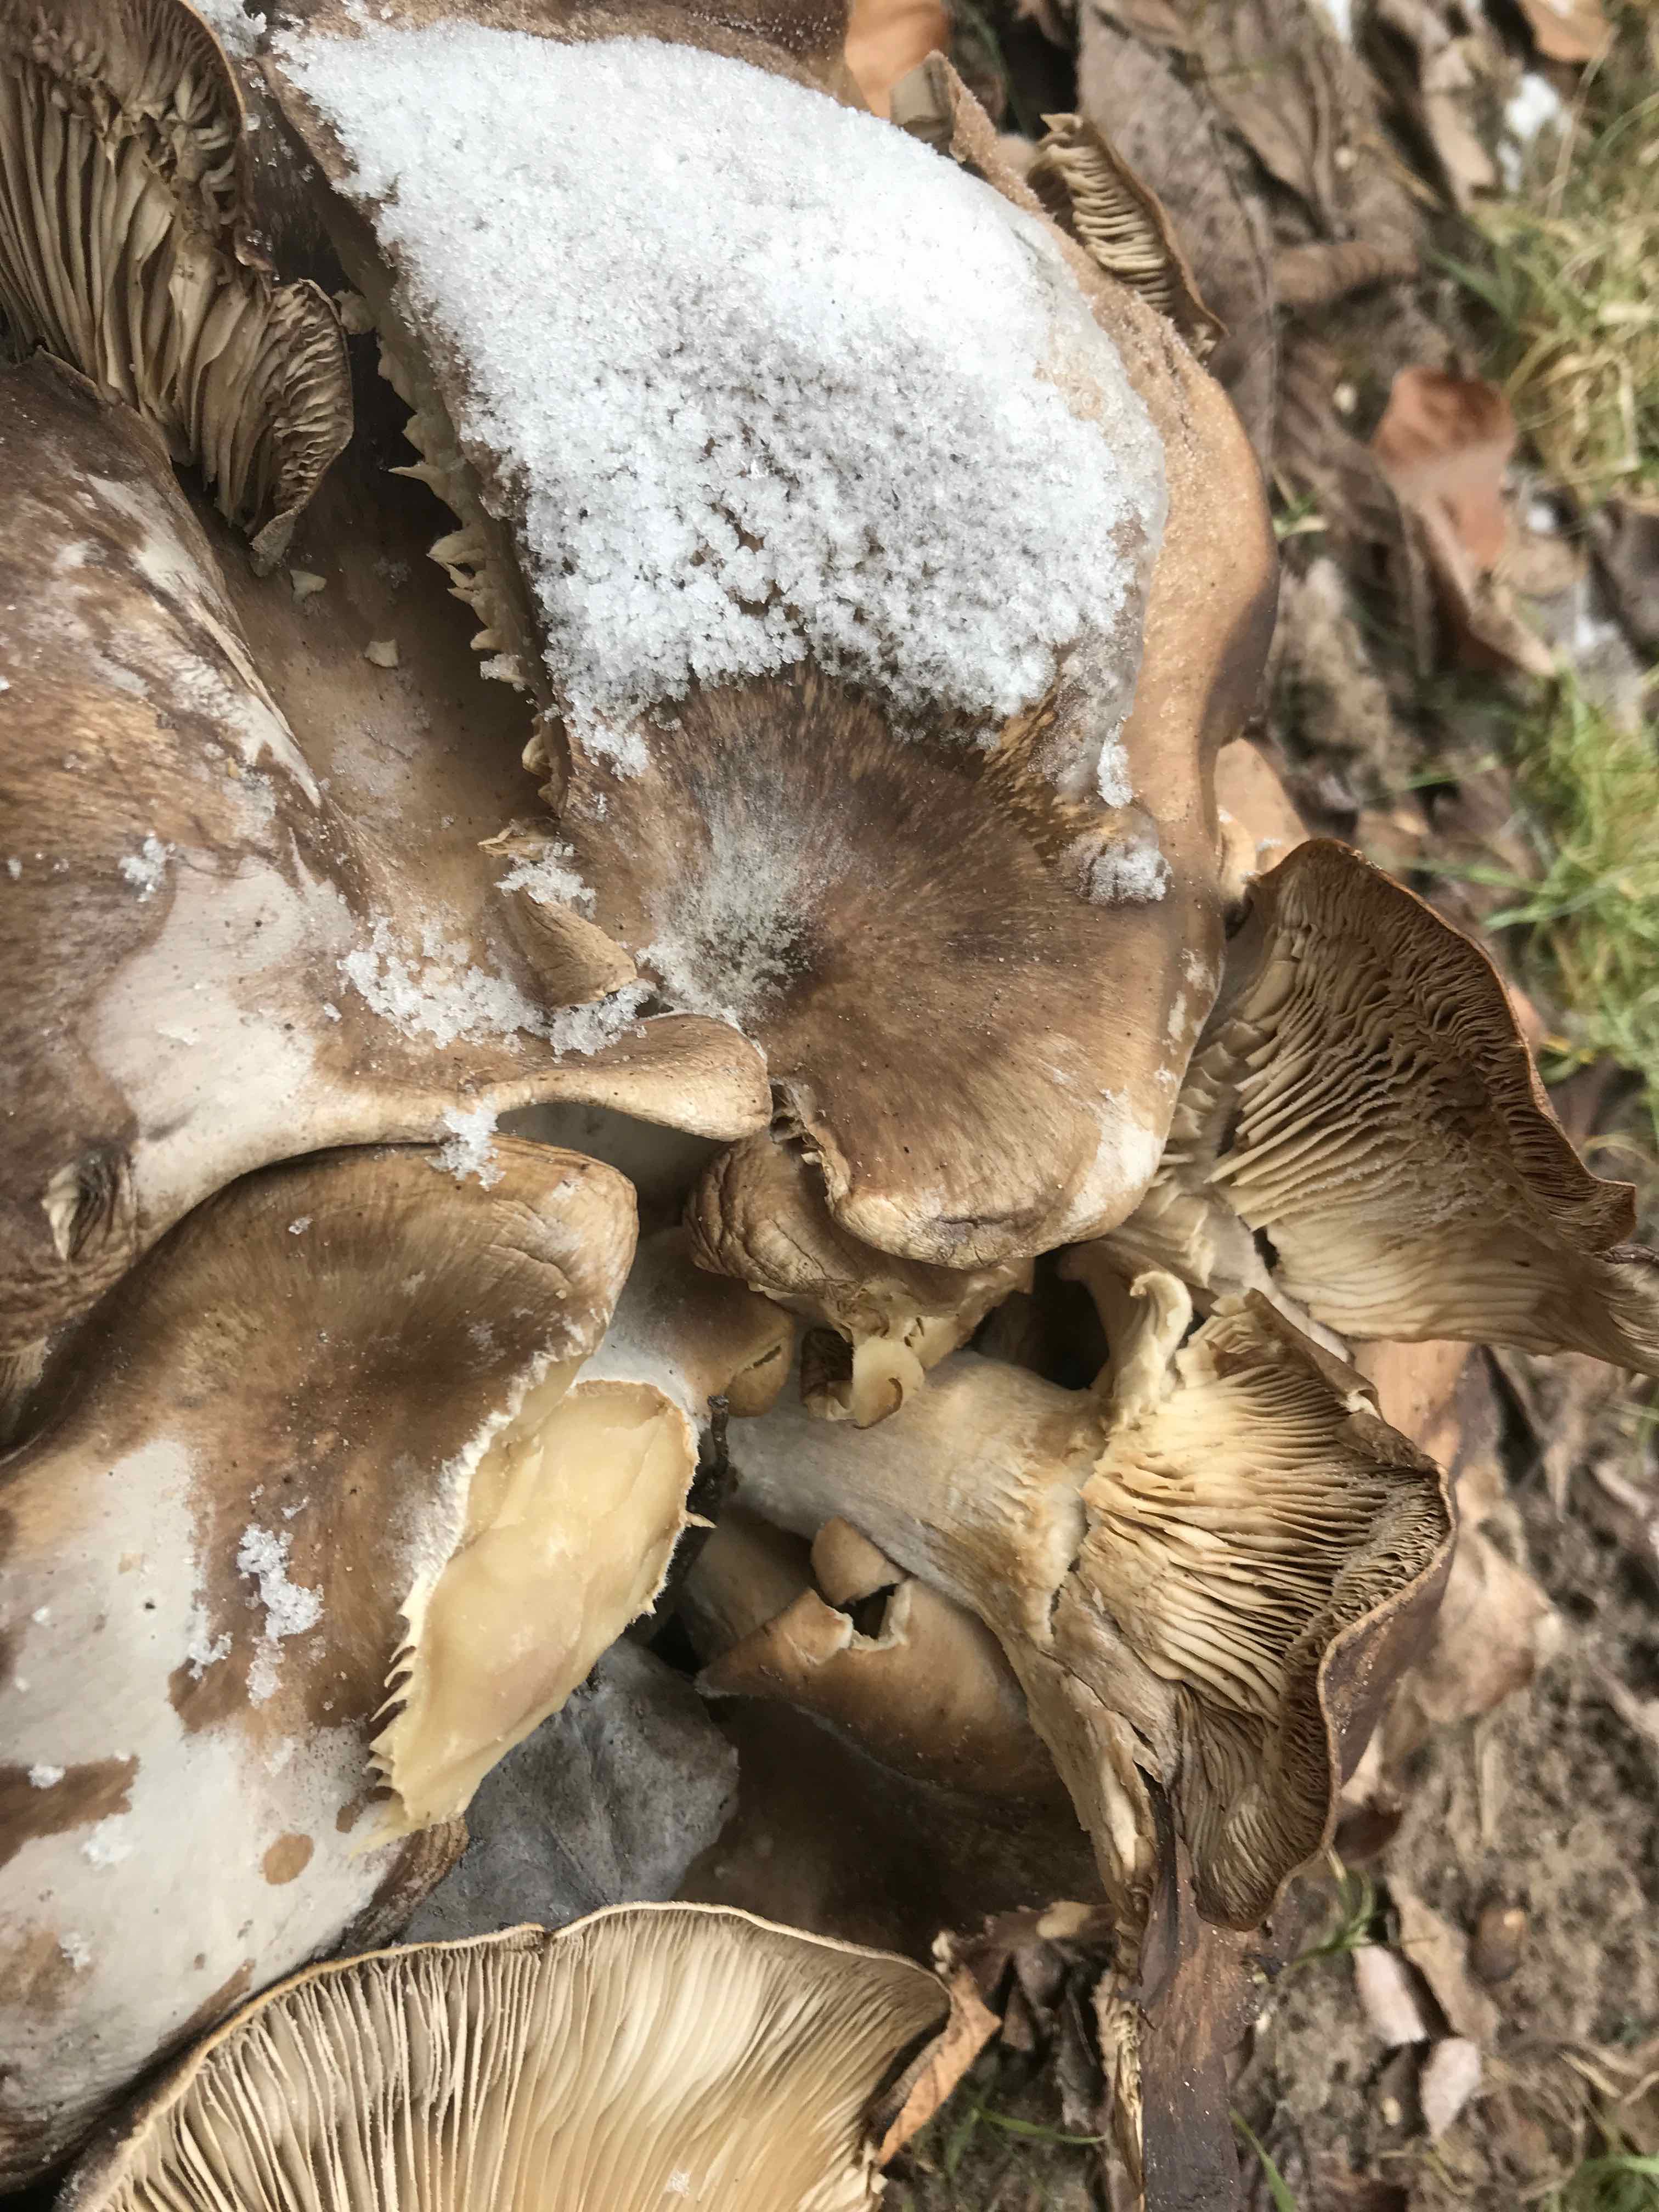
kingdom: Fungi
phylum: Basidiomycota
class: Agaricomycetes
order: Agaricales
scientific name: Agaricales
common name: champignonordenen
